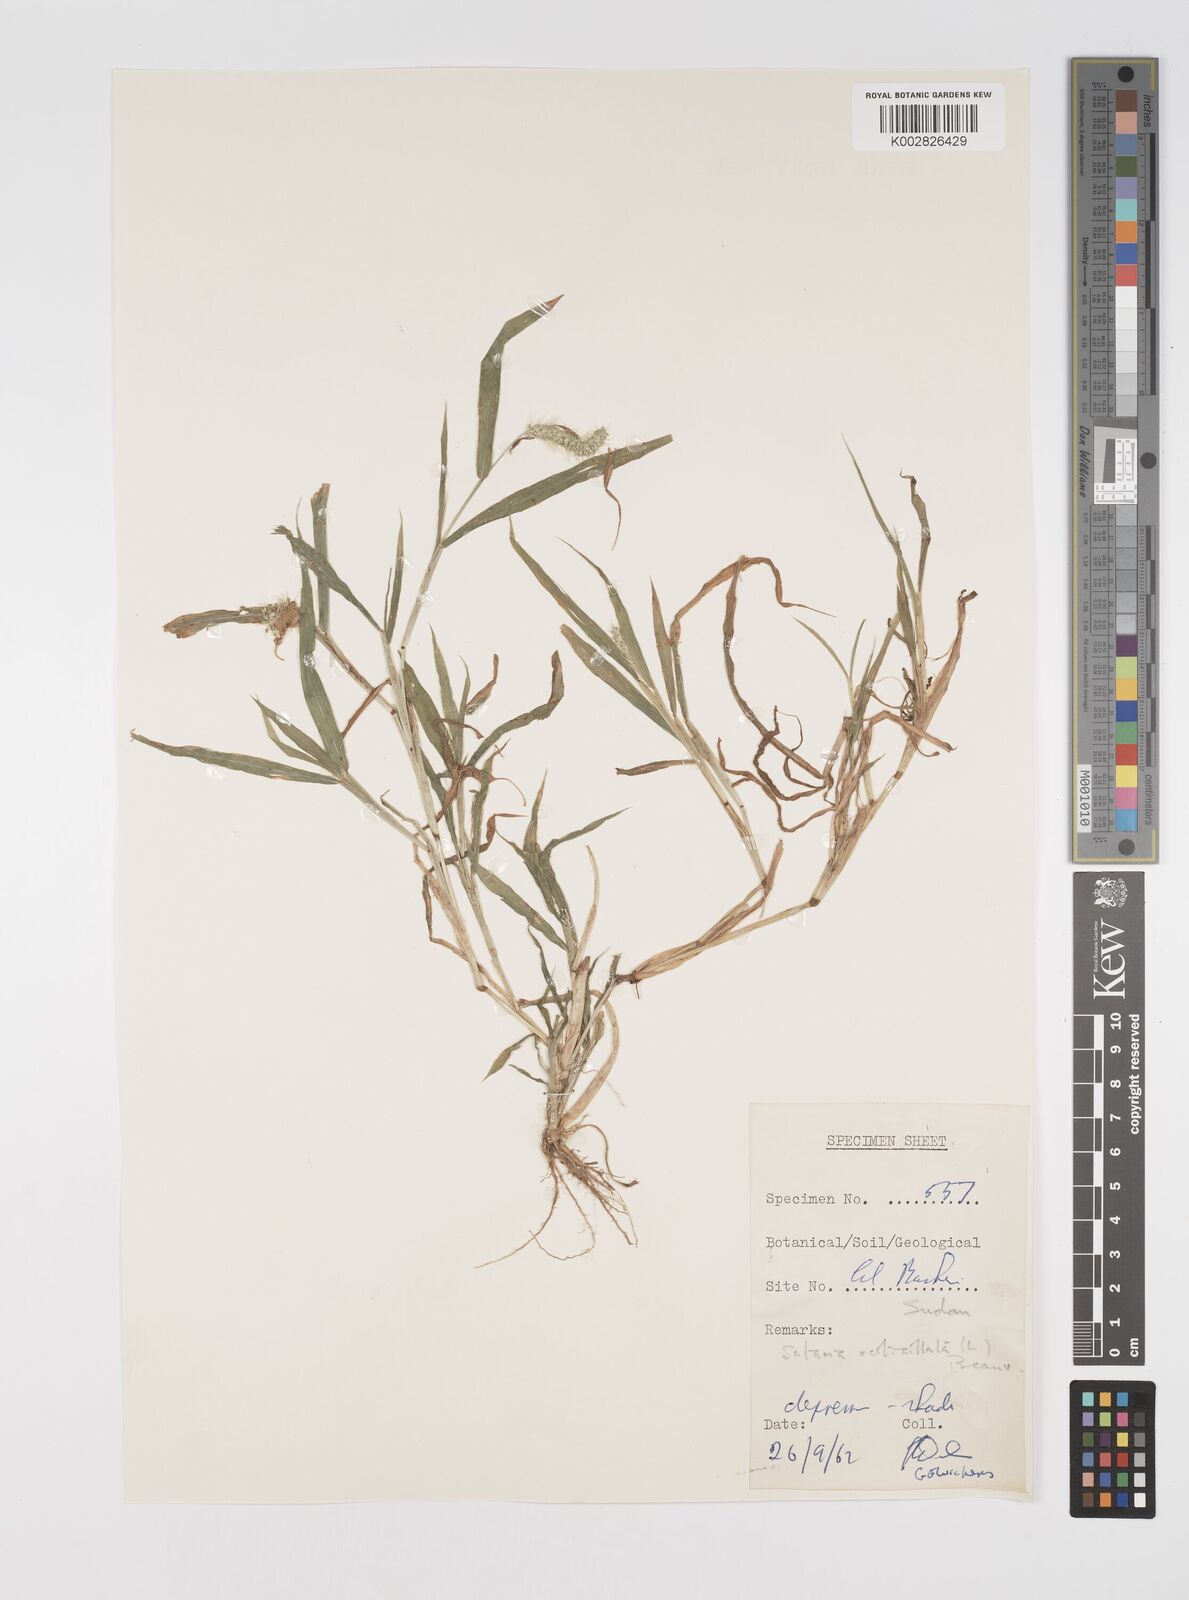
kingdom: Plantae
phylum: Tracheophyta
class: Liliopsida
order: Poales
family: Poaceae
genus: Setaria
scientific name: Setaria verticillata
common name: Hooked bristlegrass
